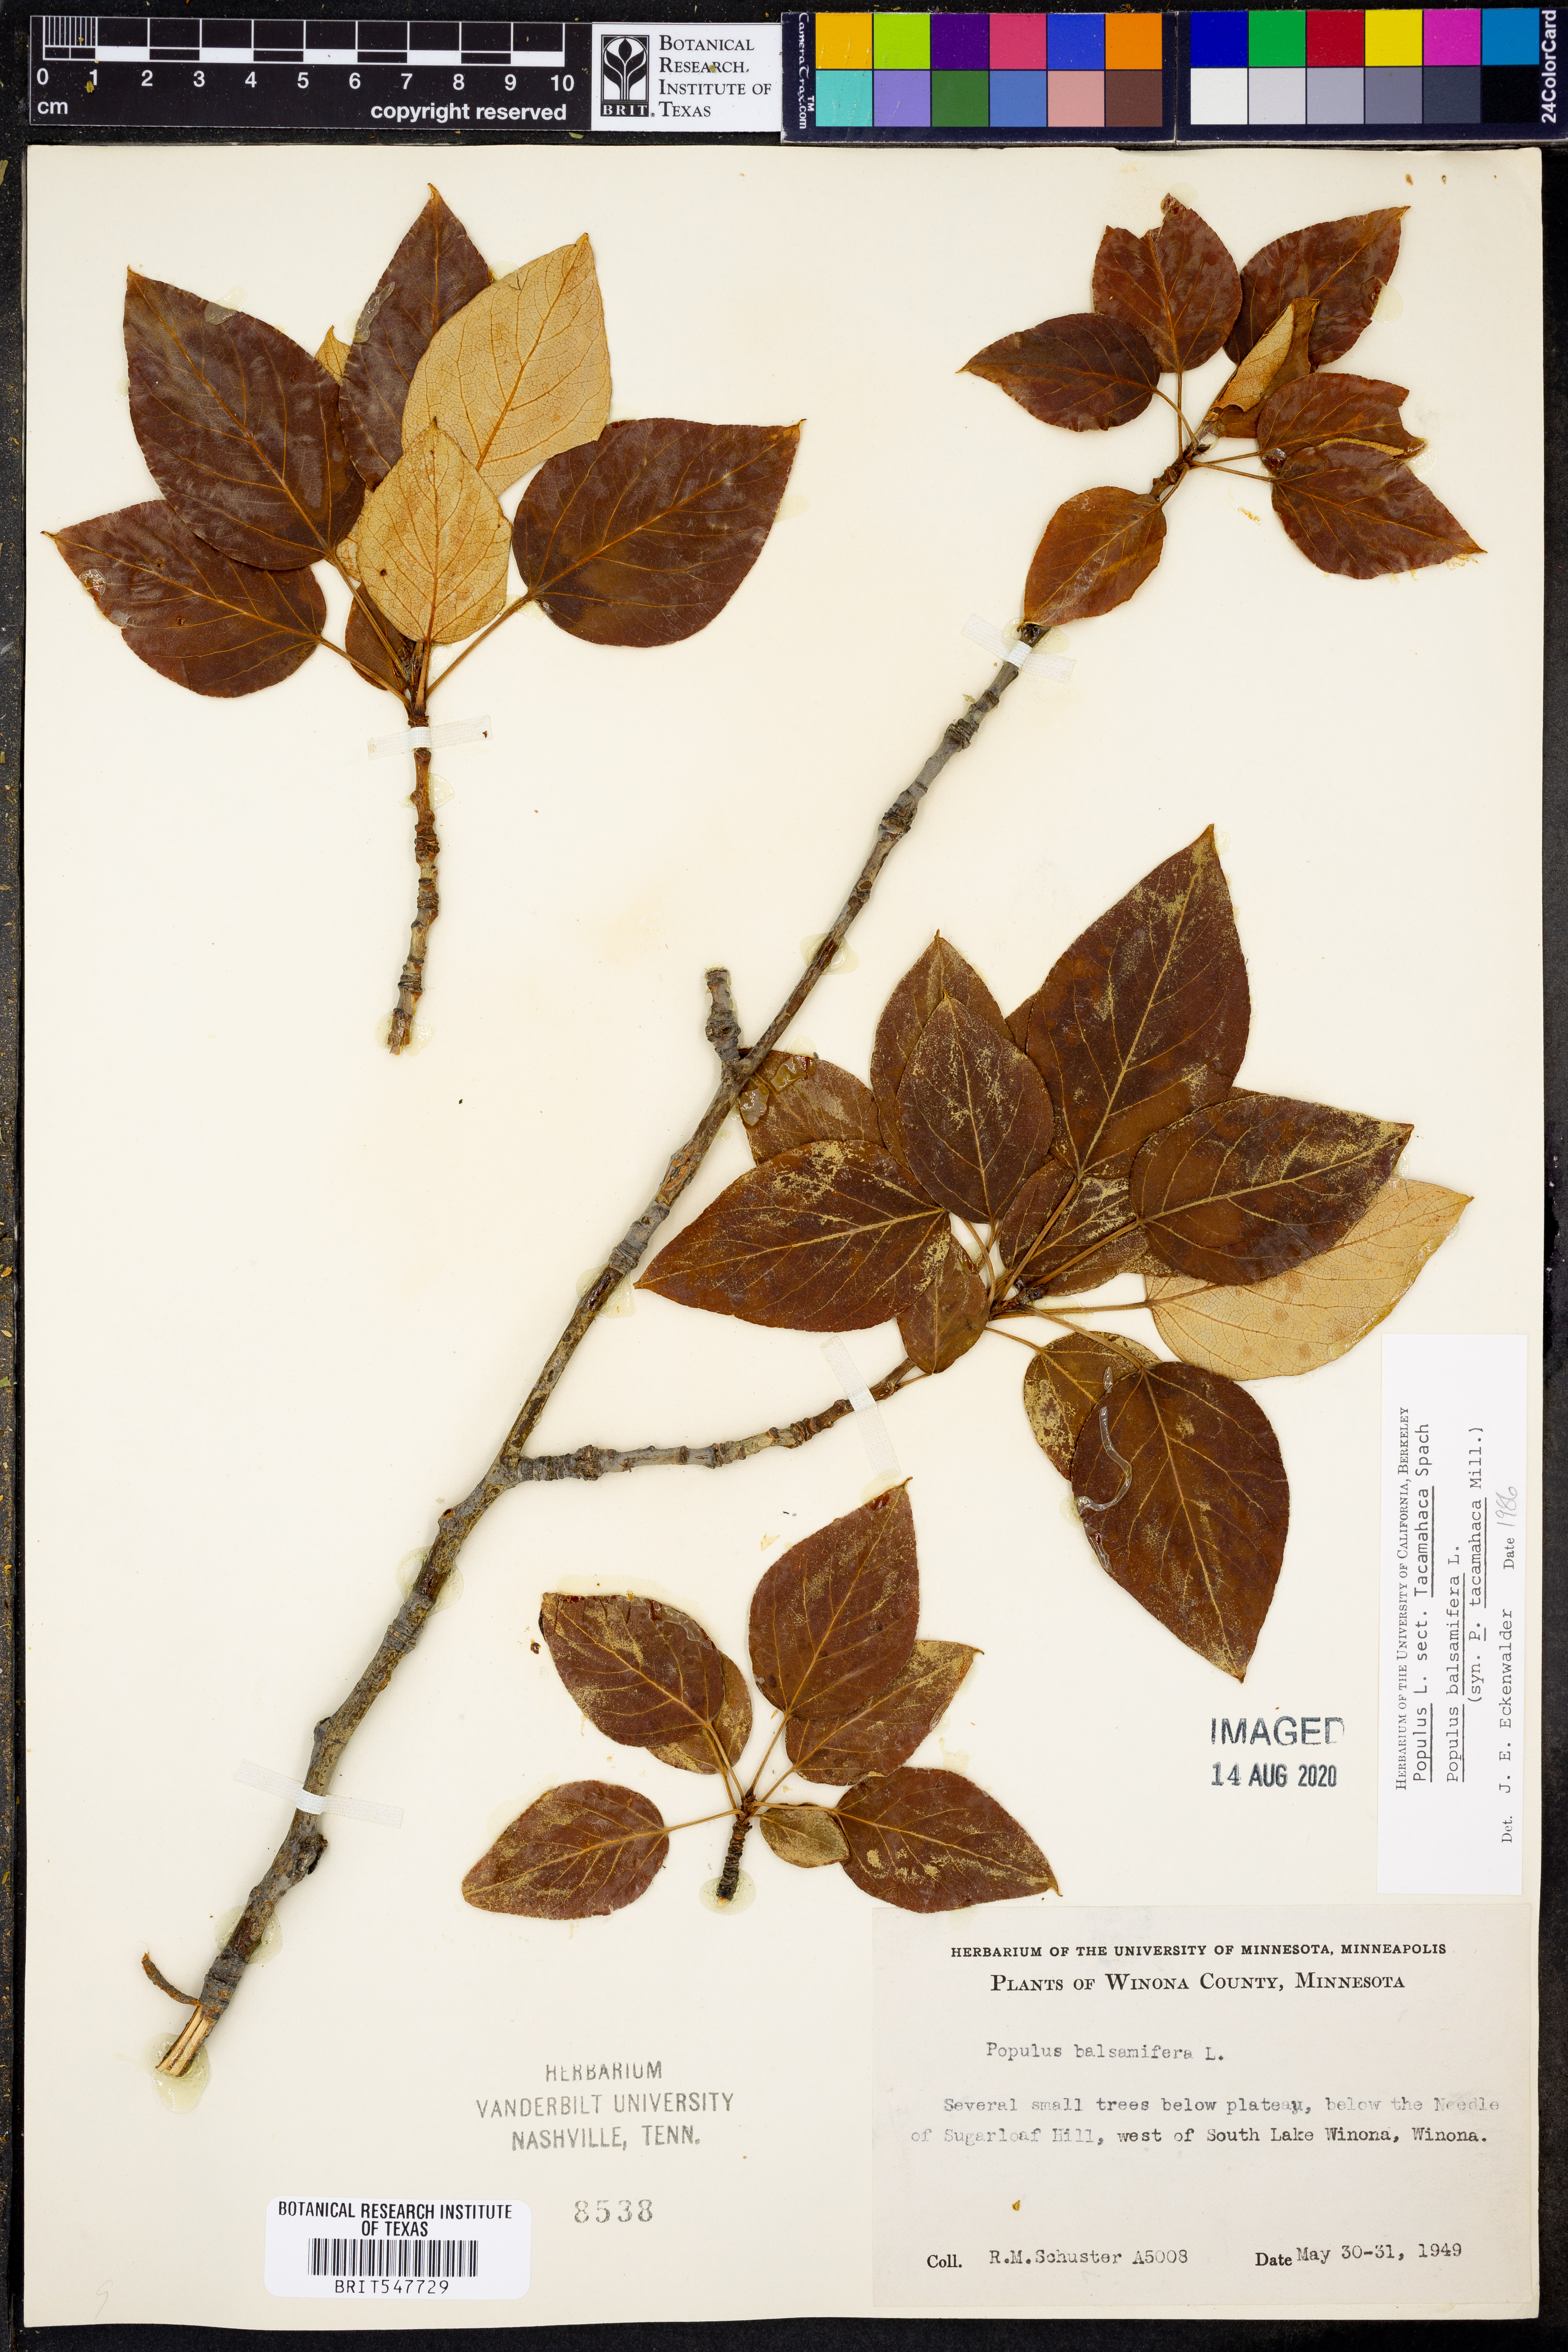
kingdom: Plantae
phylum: Tracheophyta
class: Magnoliopsida
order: Malpighiales
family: Salicaceae
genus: Populus
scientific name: Populus balsamifera
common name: Balsam poplar
